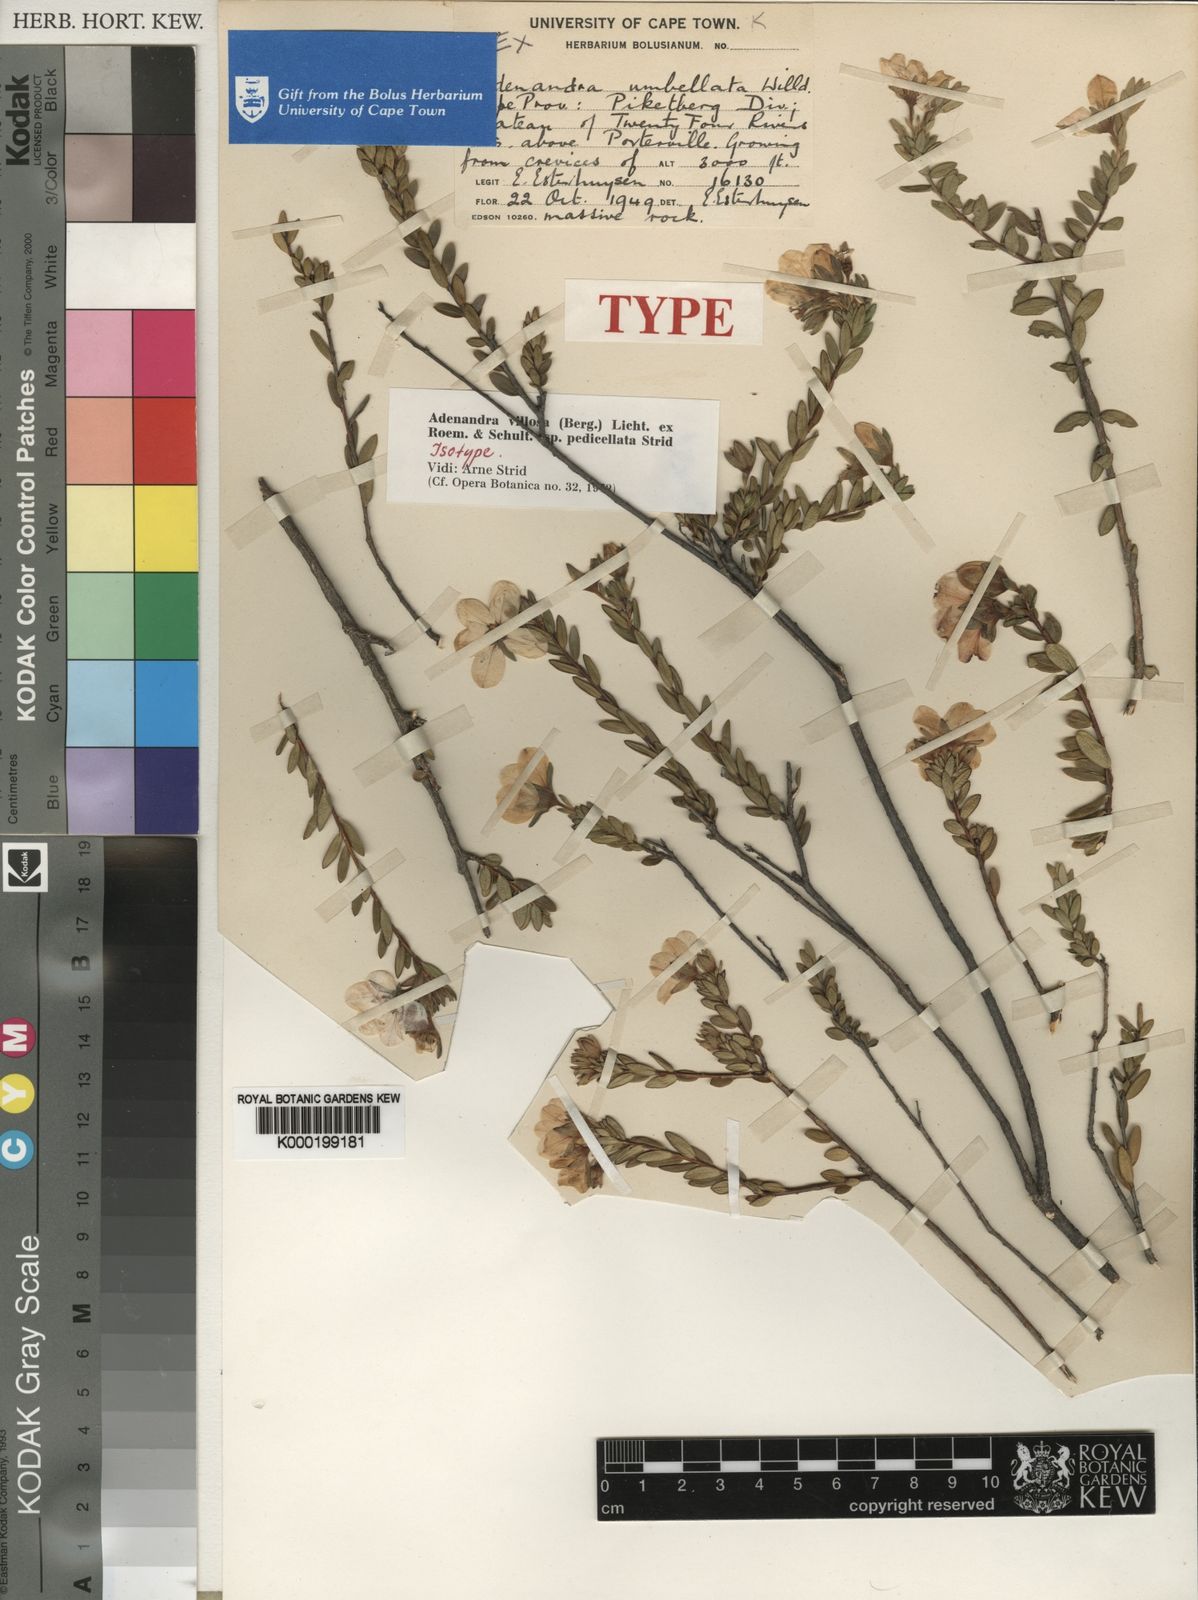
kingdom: Plantae
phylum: Tracheophyta
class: Magnoliopsida
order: Sapindales
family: Rutaceae
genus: Adenandra
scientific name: Adenandra villosa
